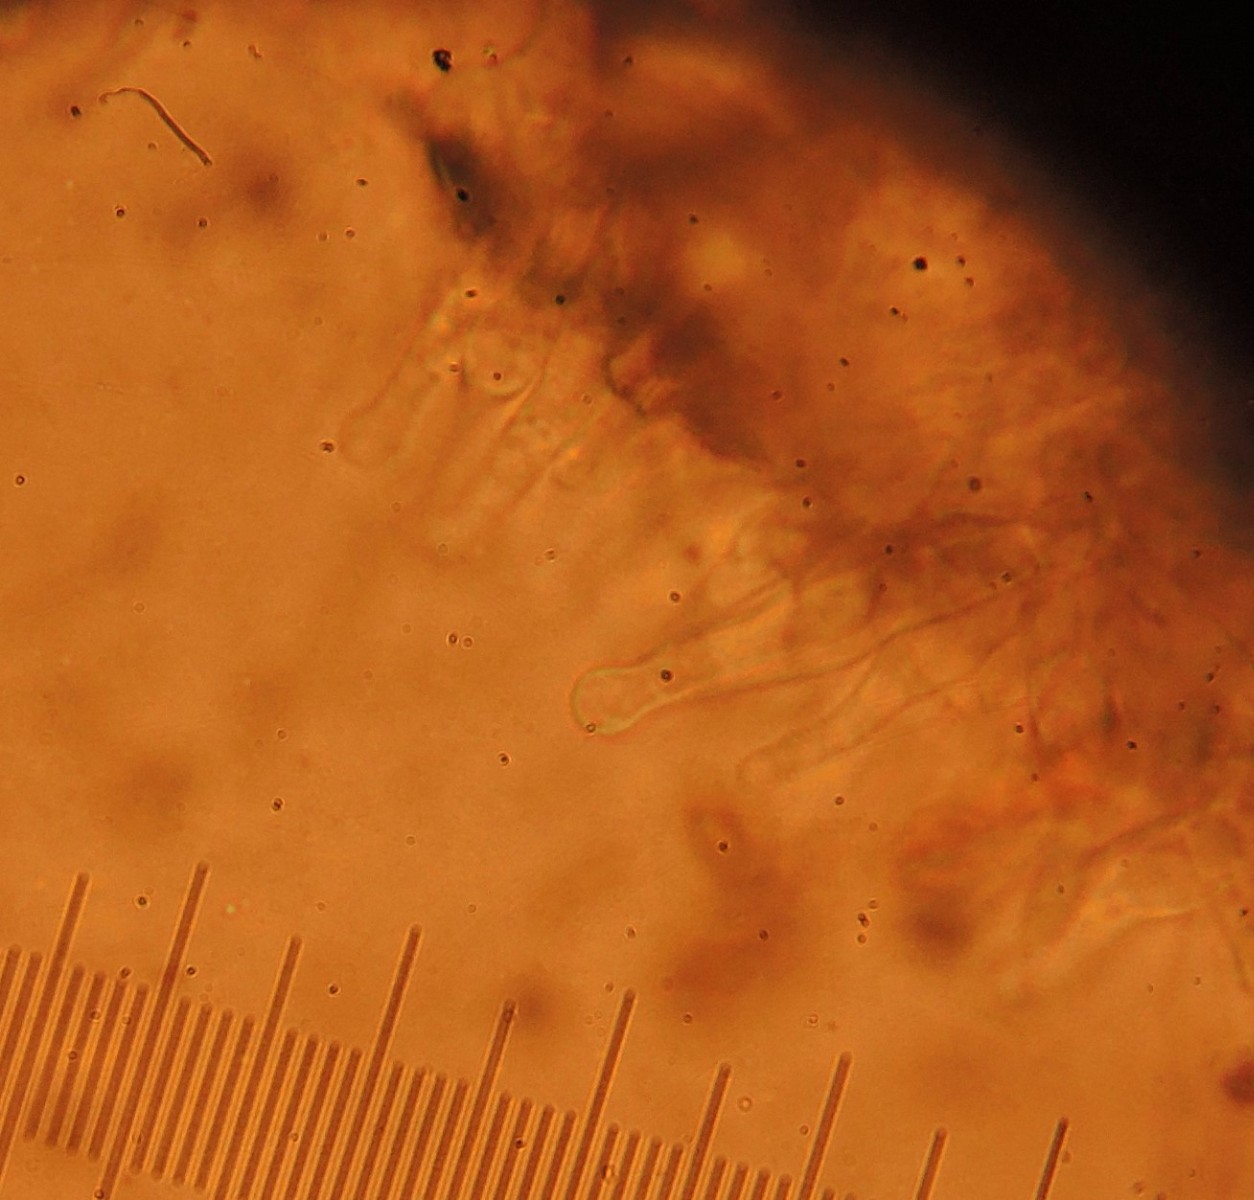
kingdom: Fungi
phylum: Basidiomycota
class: Agaricomycetes
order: Agaricales
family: Hymenogastraceae
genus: Gymnopilus
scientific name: Gymnopilus sapineus
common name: filtet flammehat
